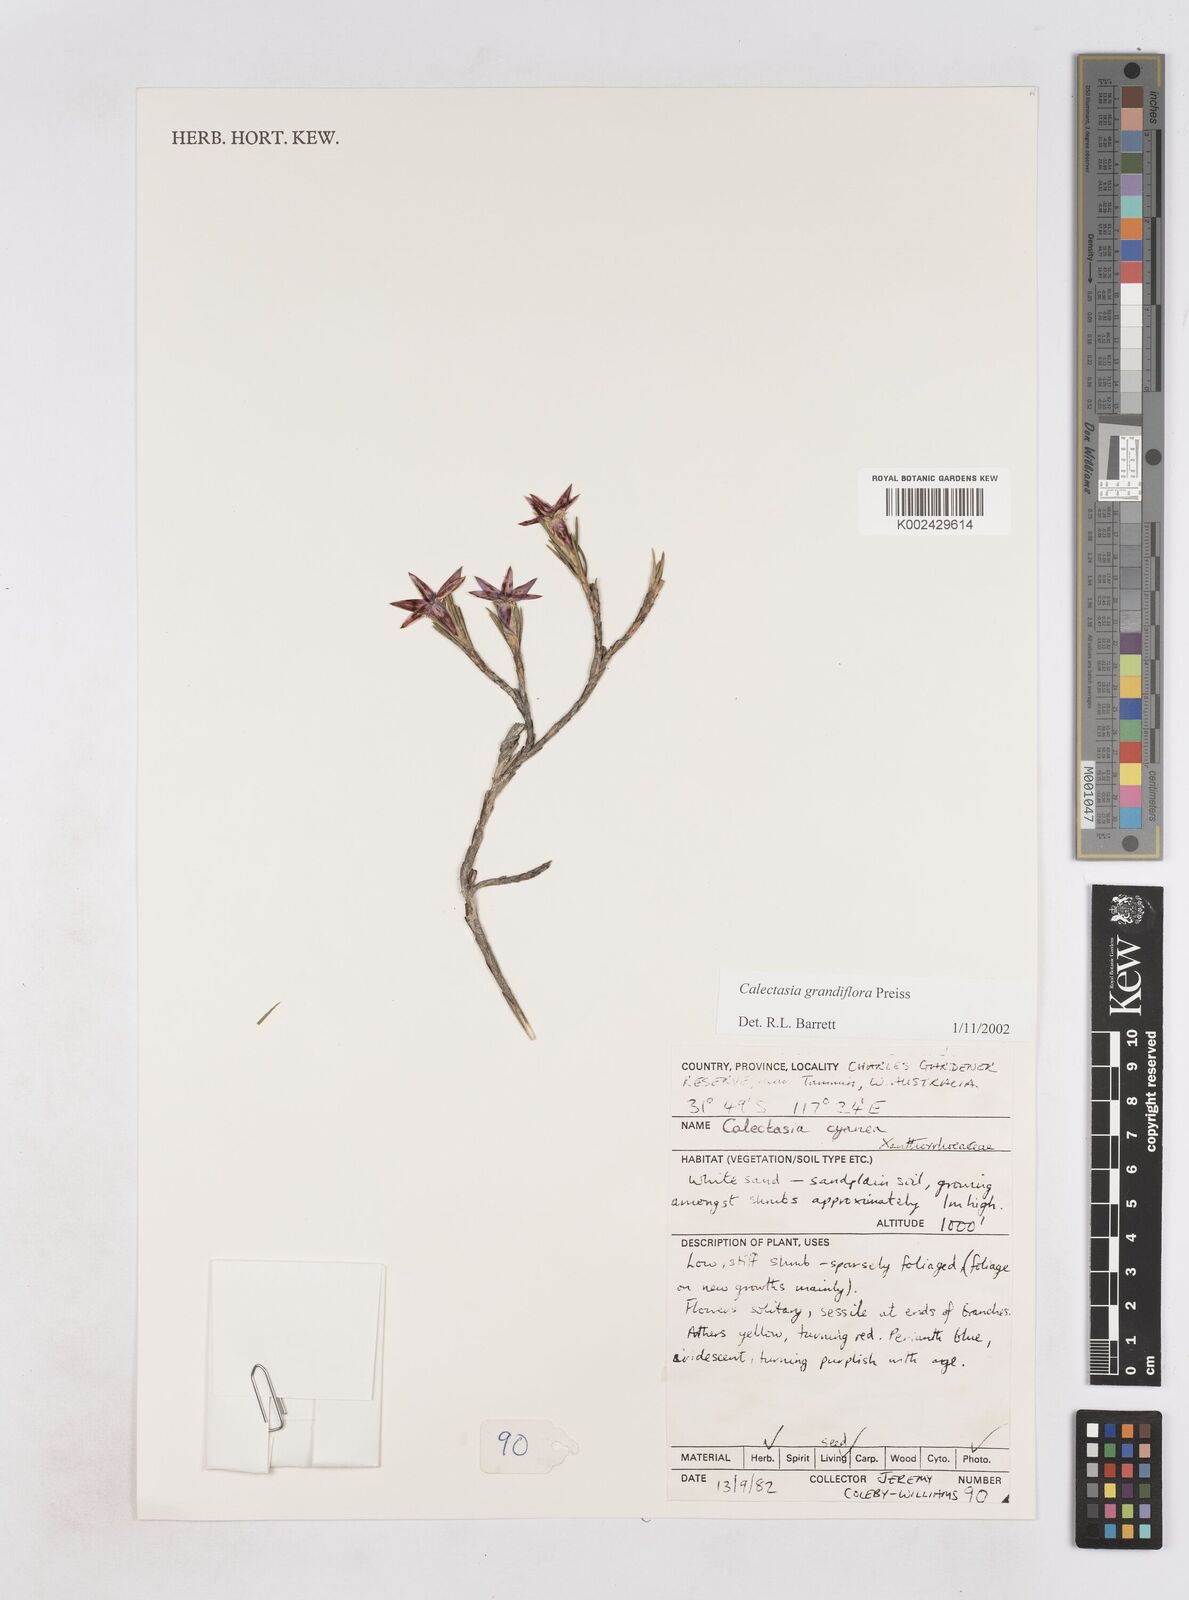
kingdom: Plantae
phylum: Tracheophyta
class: Liliopsida
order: Arecales
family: Dasypogonaceae
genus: Calectasia
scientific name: Calectasia grandiflora
